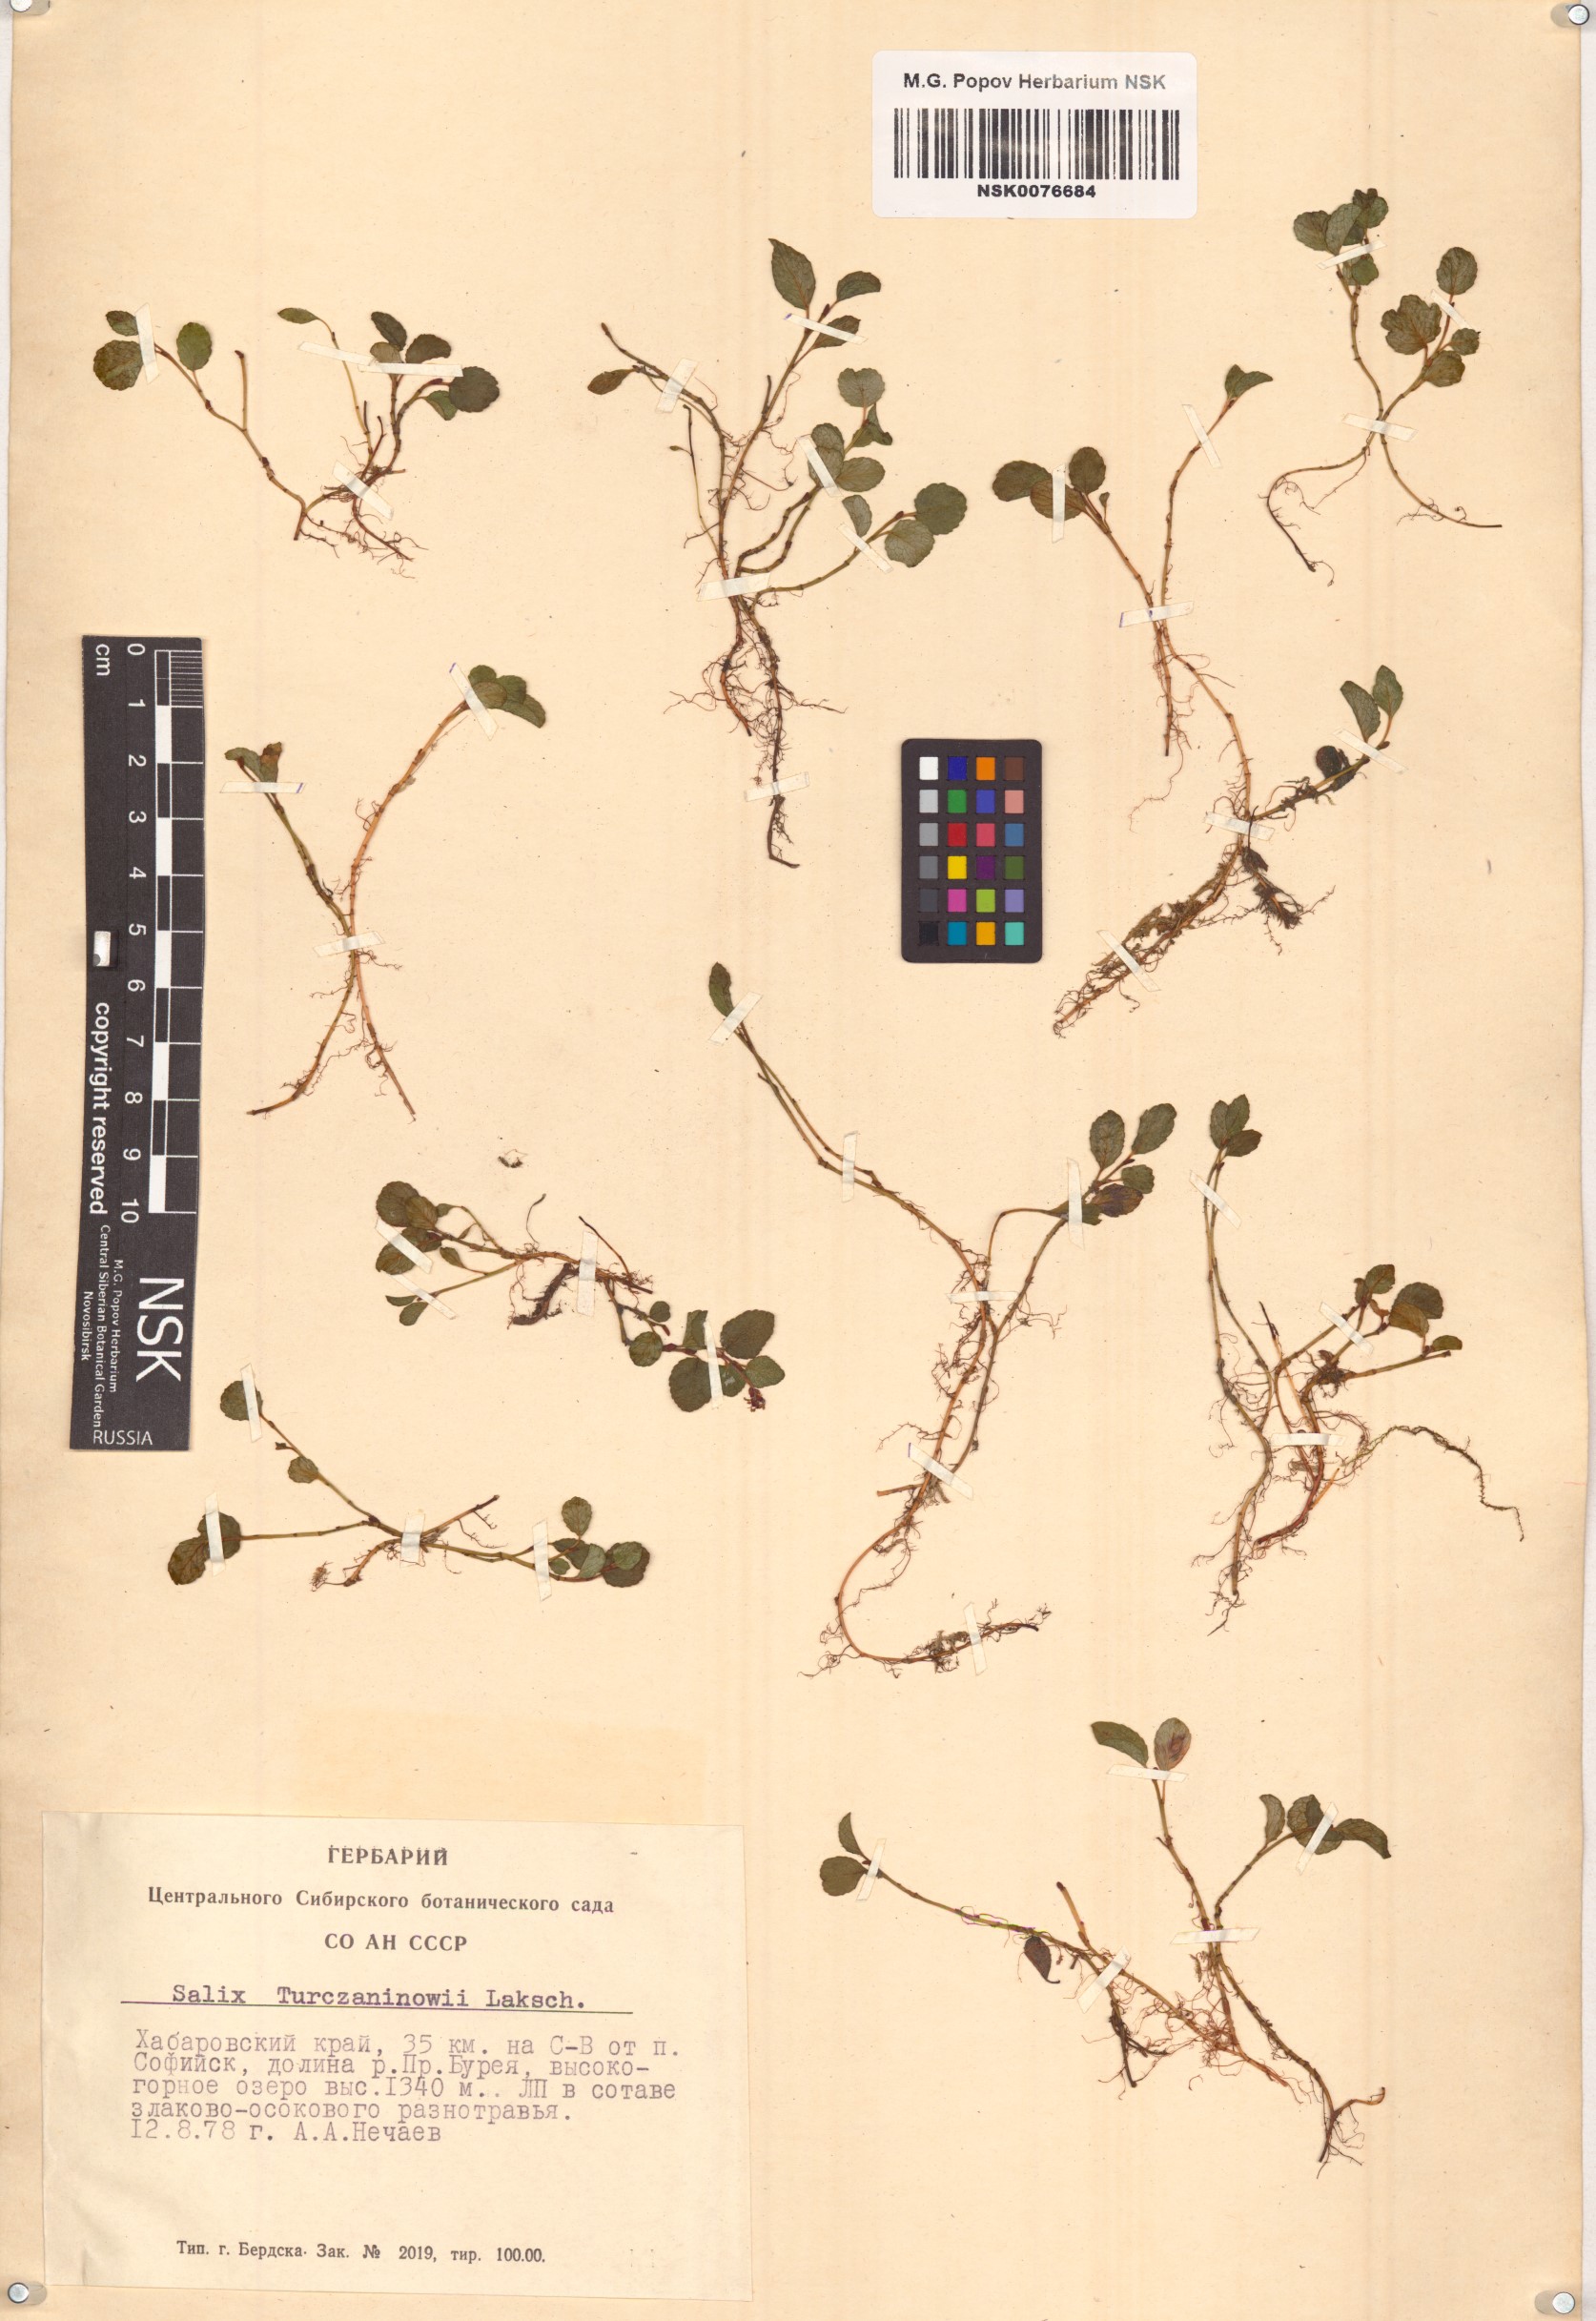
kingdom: Plantae
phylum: Tracheophyta
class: Magnoliopsida
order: Malpighiales
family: Salicaceae
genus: Salix
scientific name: Salix turczaninowii
